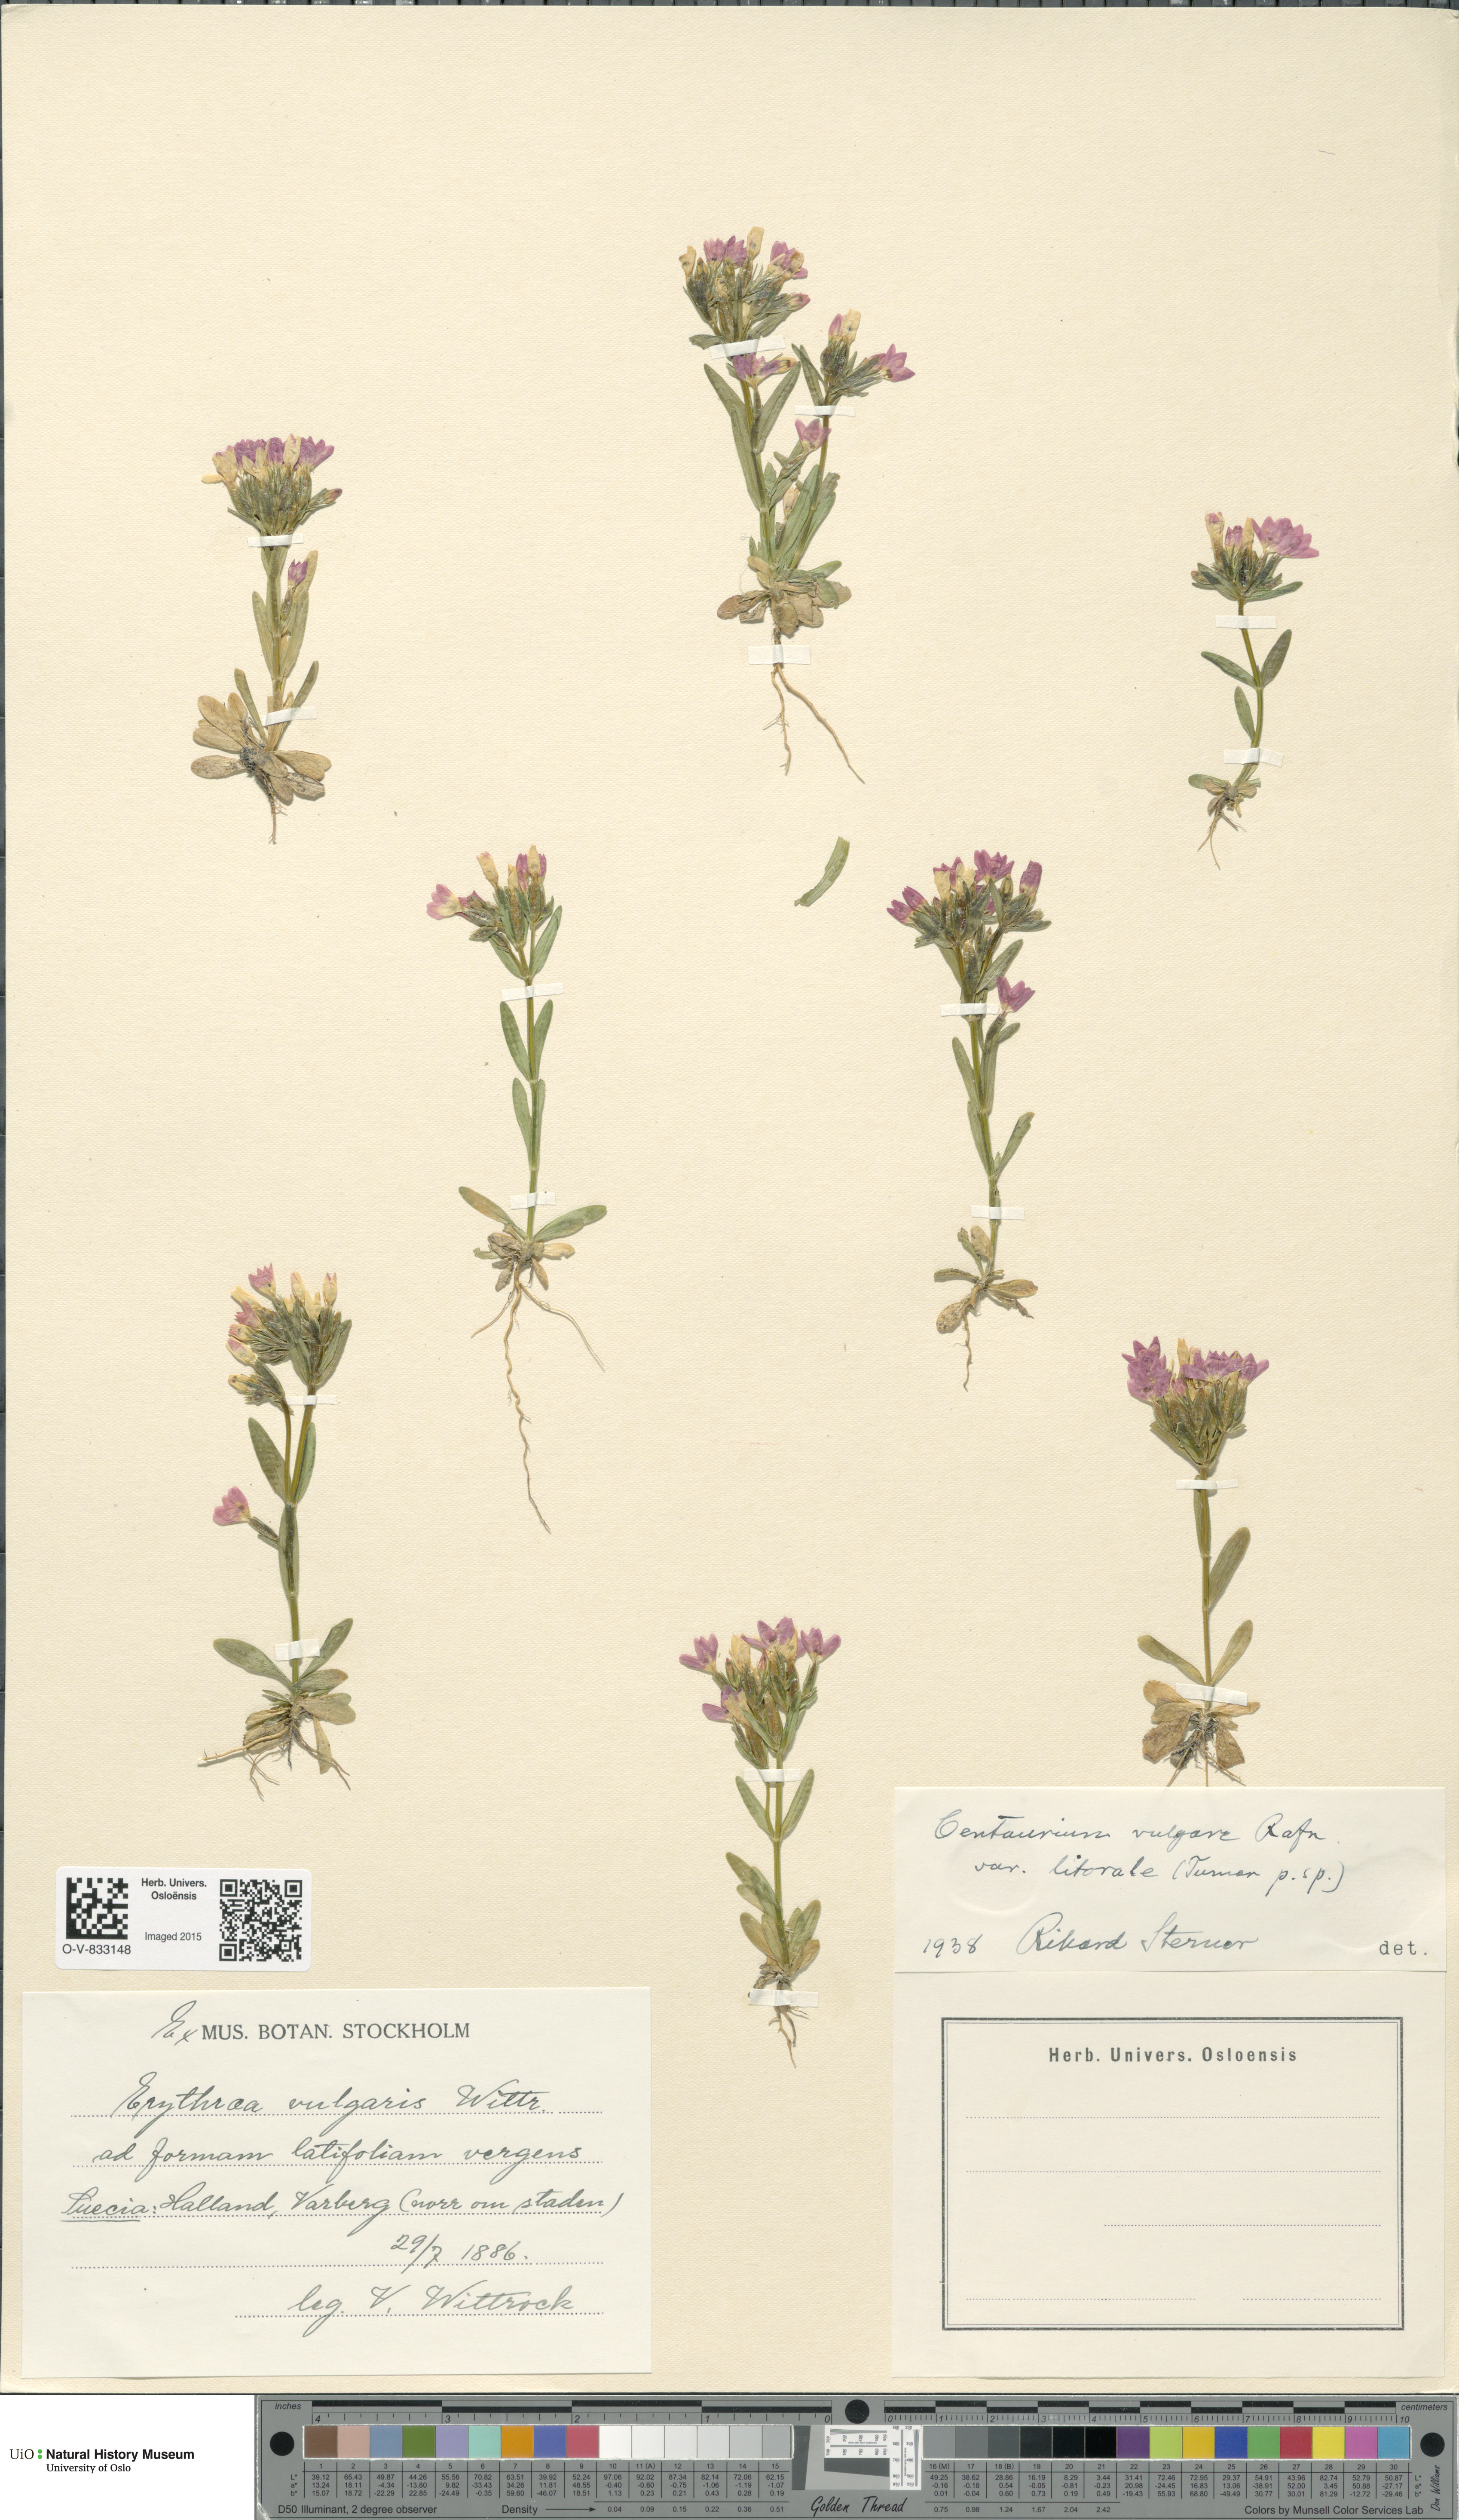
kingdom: Plantae
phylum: Tracheophyta
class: Magnoliopsida
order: Gentianales
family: Gentianaceae
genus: Centaurium
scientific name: Centaurium littorale
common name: Seaside centaury
